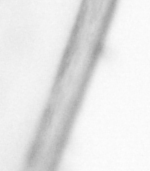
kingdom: Animalia
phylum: Chaetognatha
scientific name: Chaetognatha
